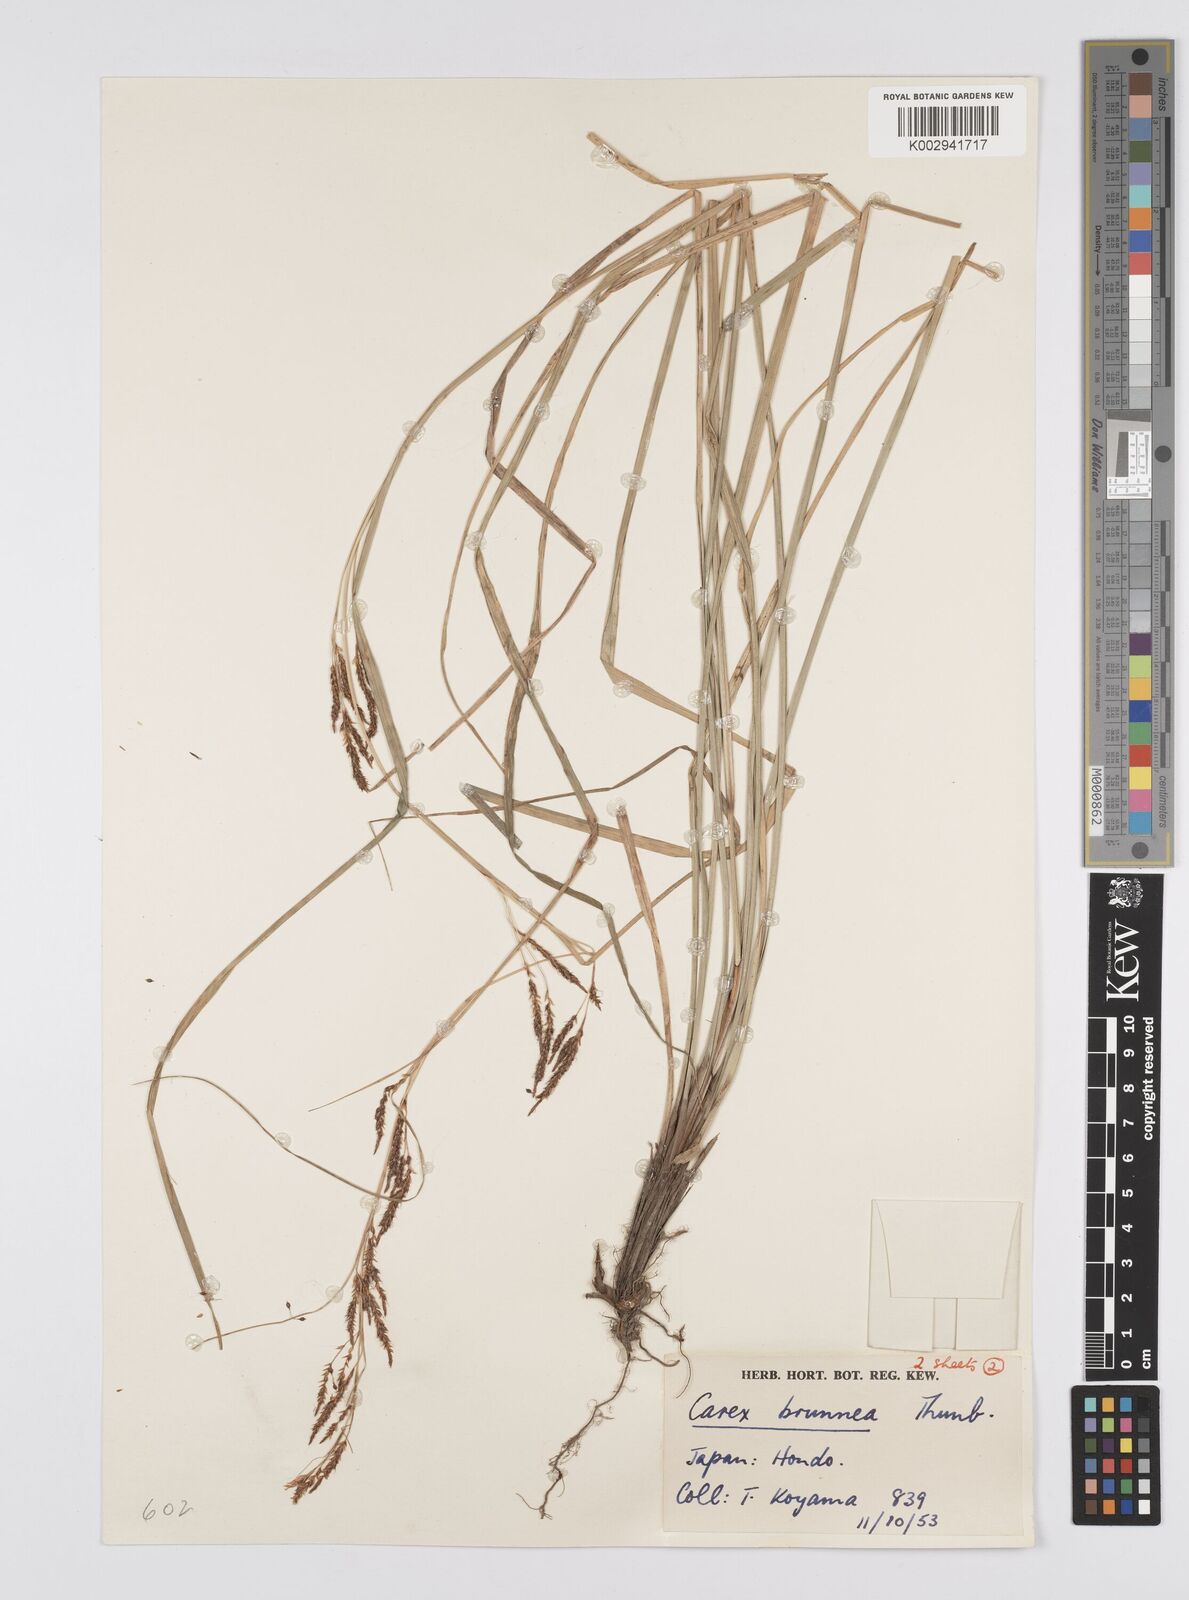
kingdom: Plantae
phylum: Tracheophyta
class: Liliopsida
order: Poales
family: Cyperaceae
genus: Carex
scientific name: Carex brunnea
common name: Greater brown sedge
